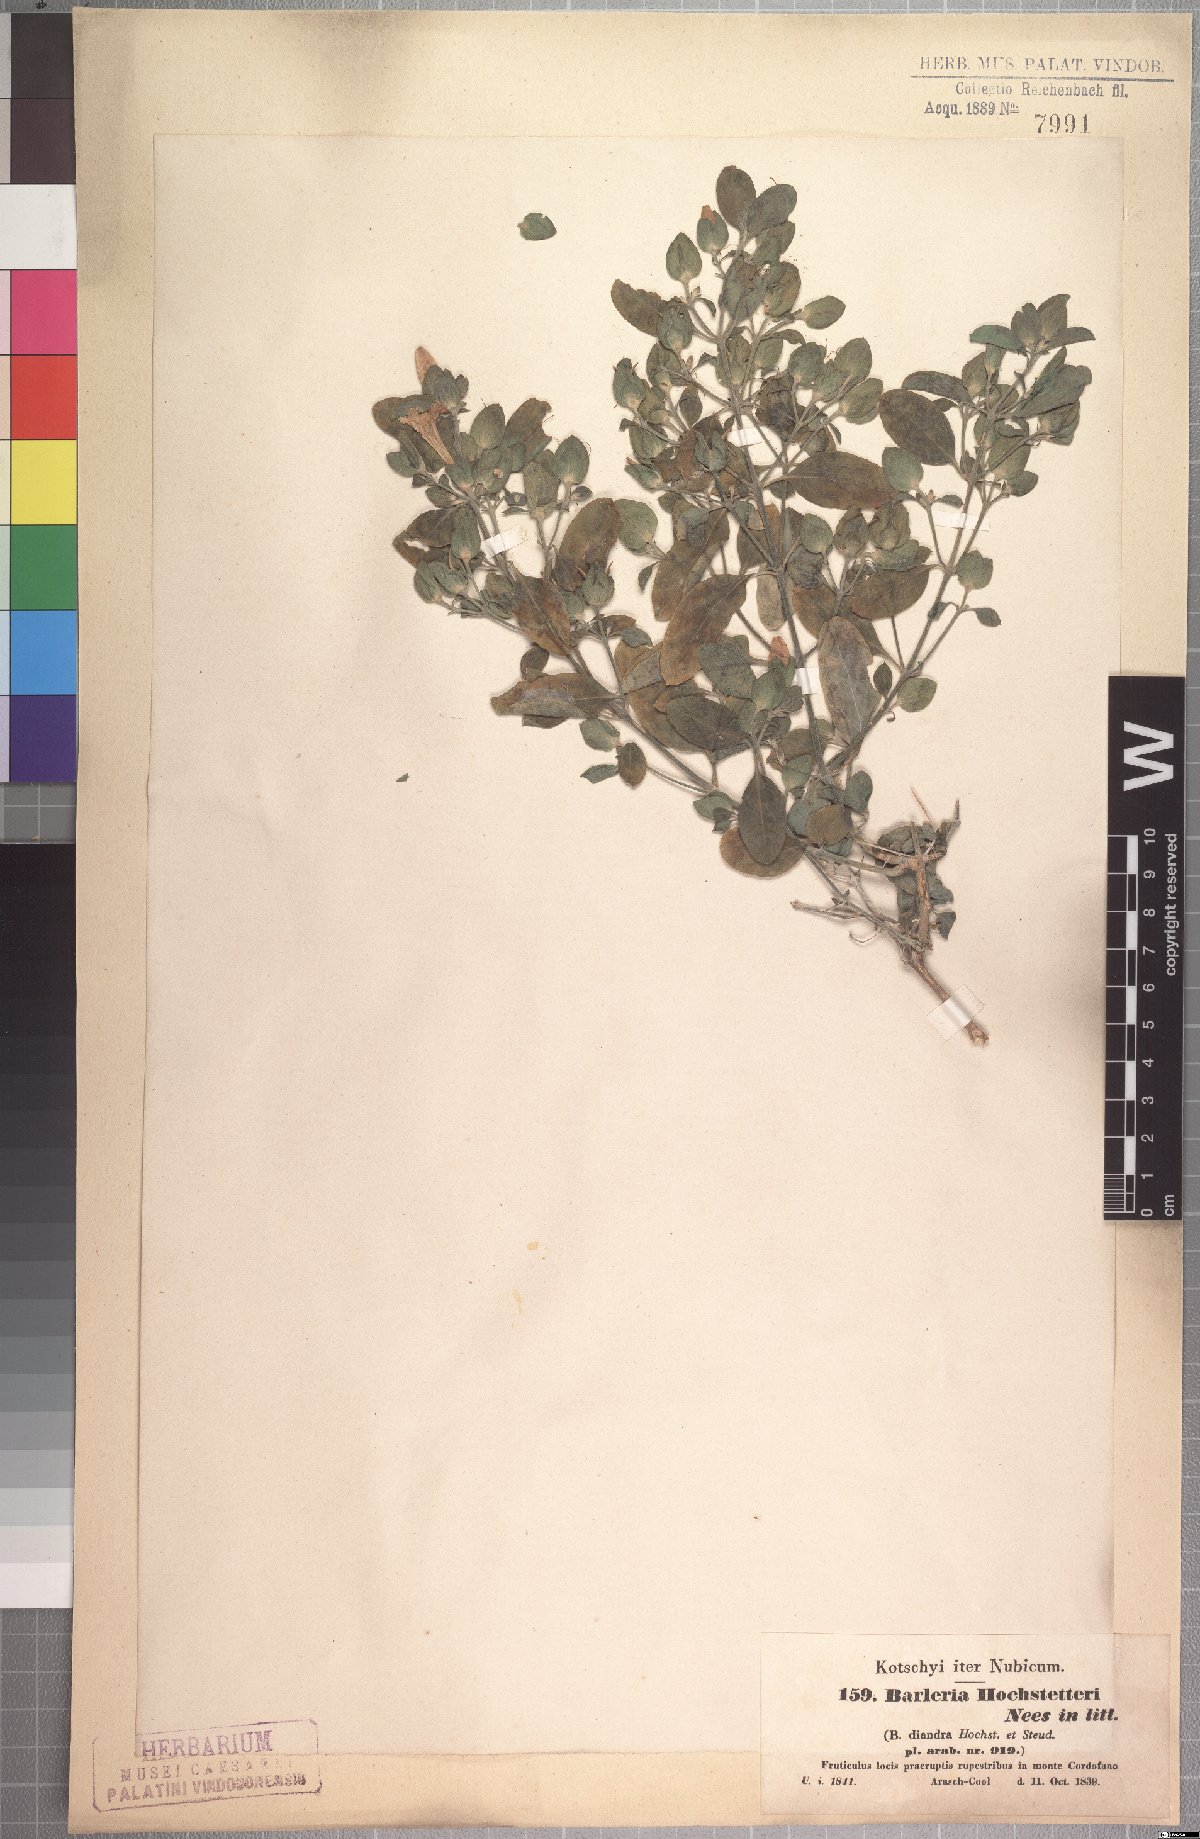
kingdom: Plantae
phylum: Tracheophyta
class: Magnoliopsida
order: Lamiales
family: Acanthaceae
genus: Barleria
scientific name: Barleria hochstetteri
